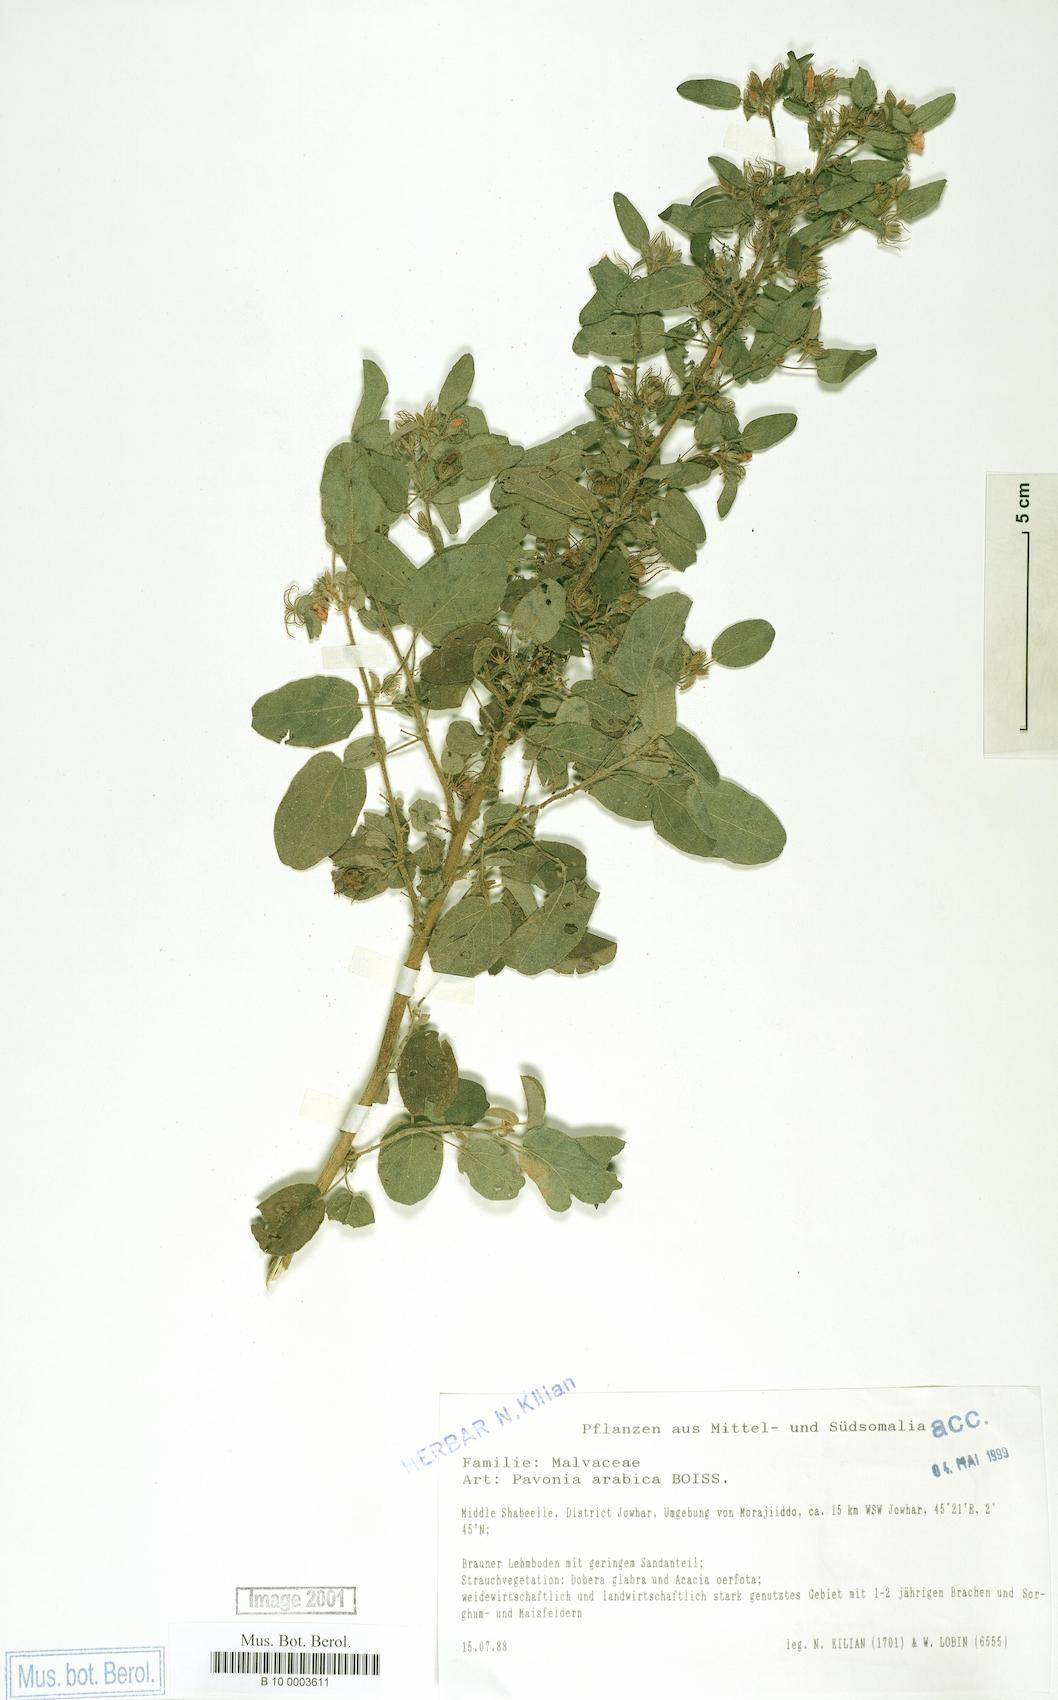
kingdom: Plantae
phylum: Tracheophyta
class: Magnoliopsida
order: Malvales
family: Malvaceae
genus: Pavonia
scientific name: Pavonia arabica
